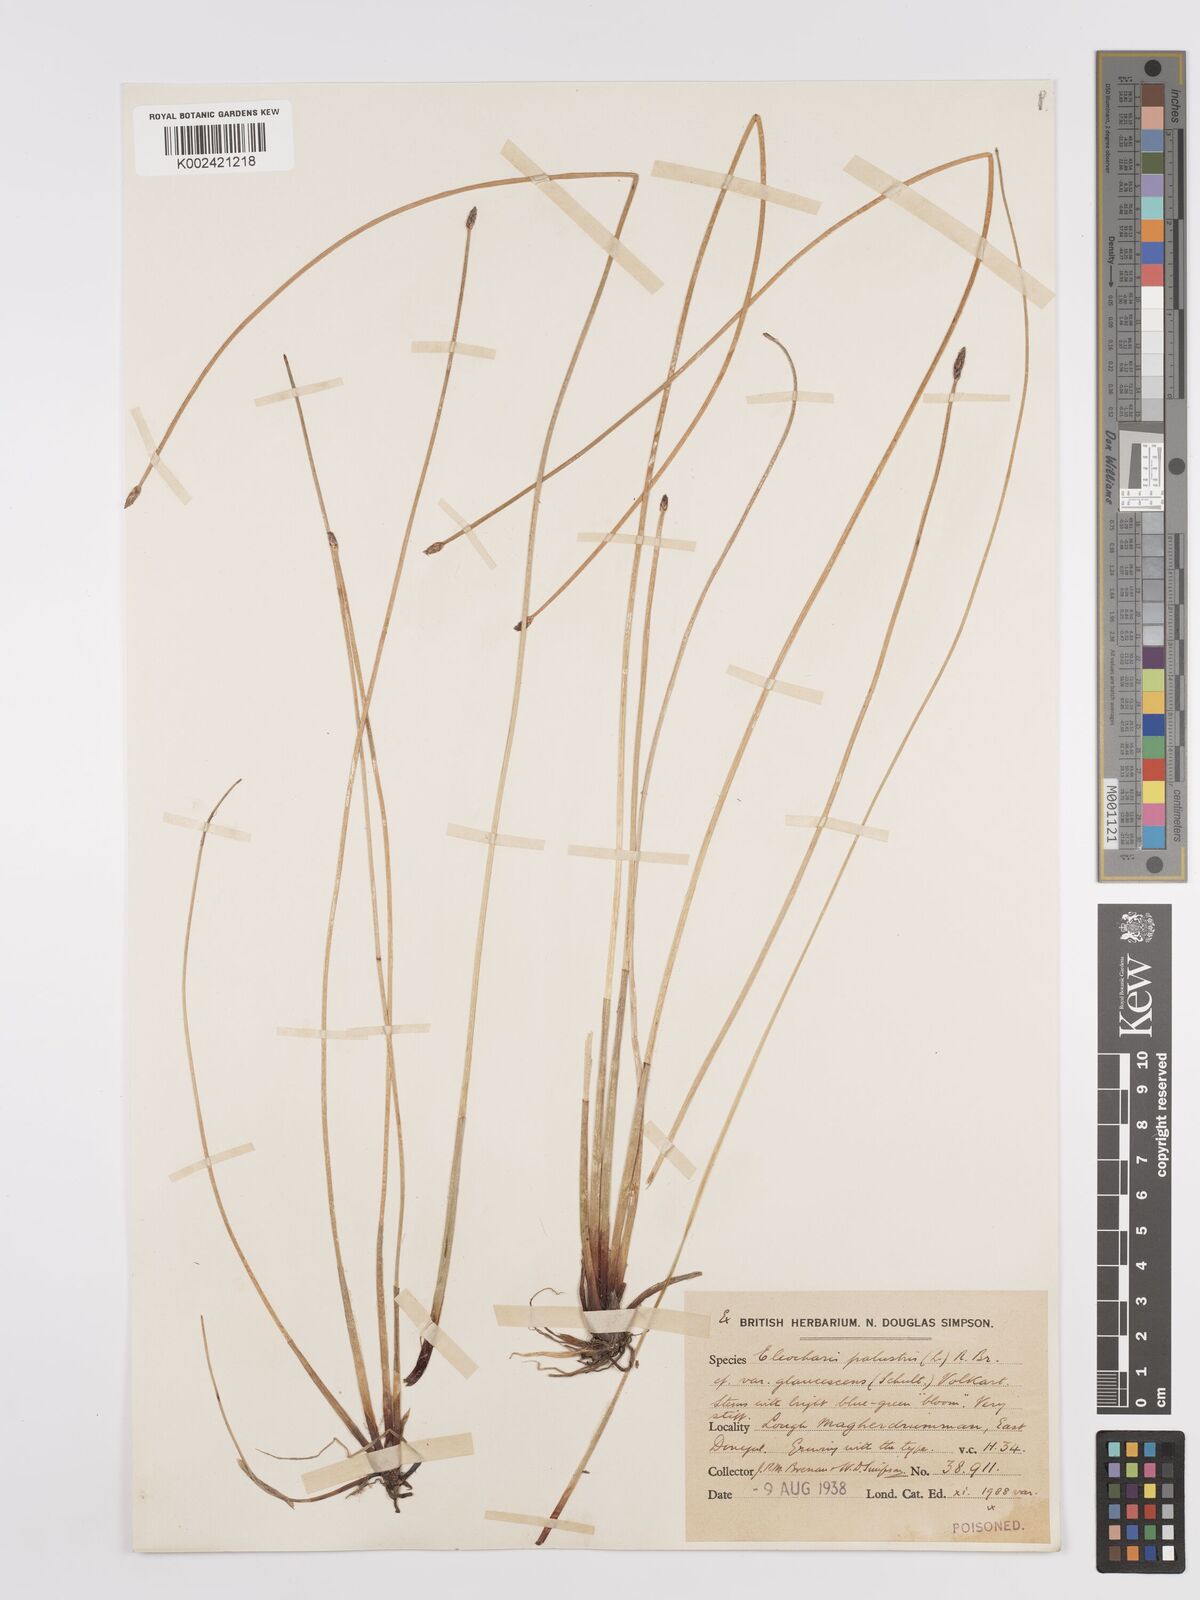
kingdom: Plantae
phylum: Tracheophyta
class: Liliopsida
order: Poales
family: Cyperaceae
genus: Eleocharis
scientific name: Eleocharis palustris
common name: Common spike-rush
